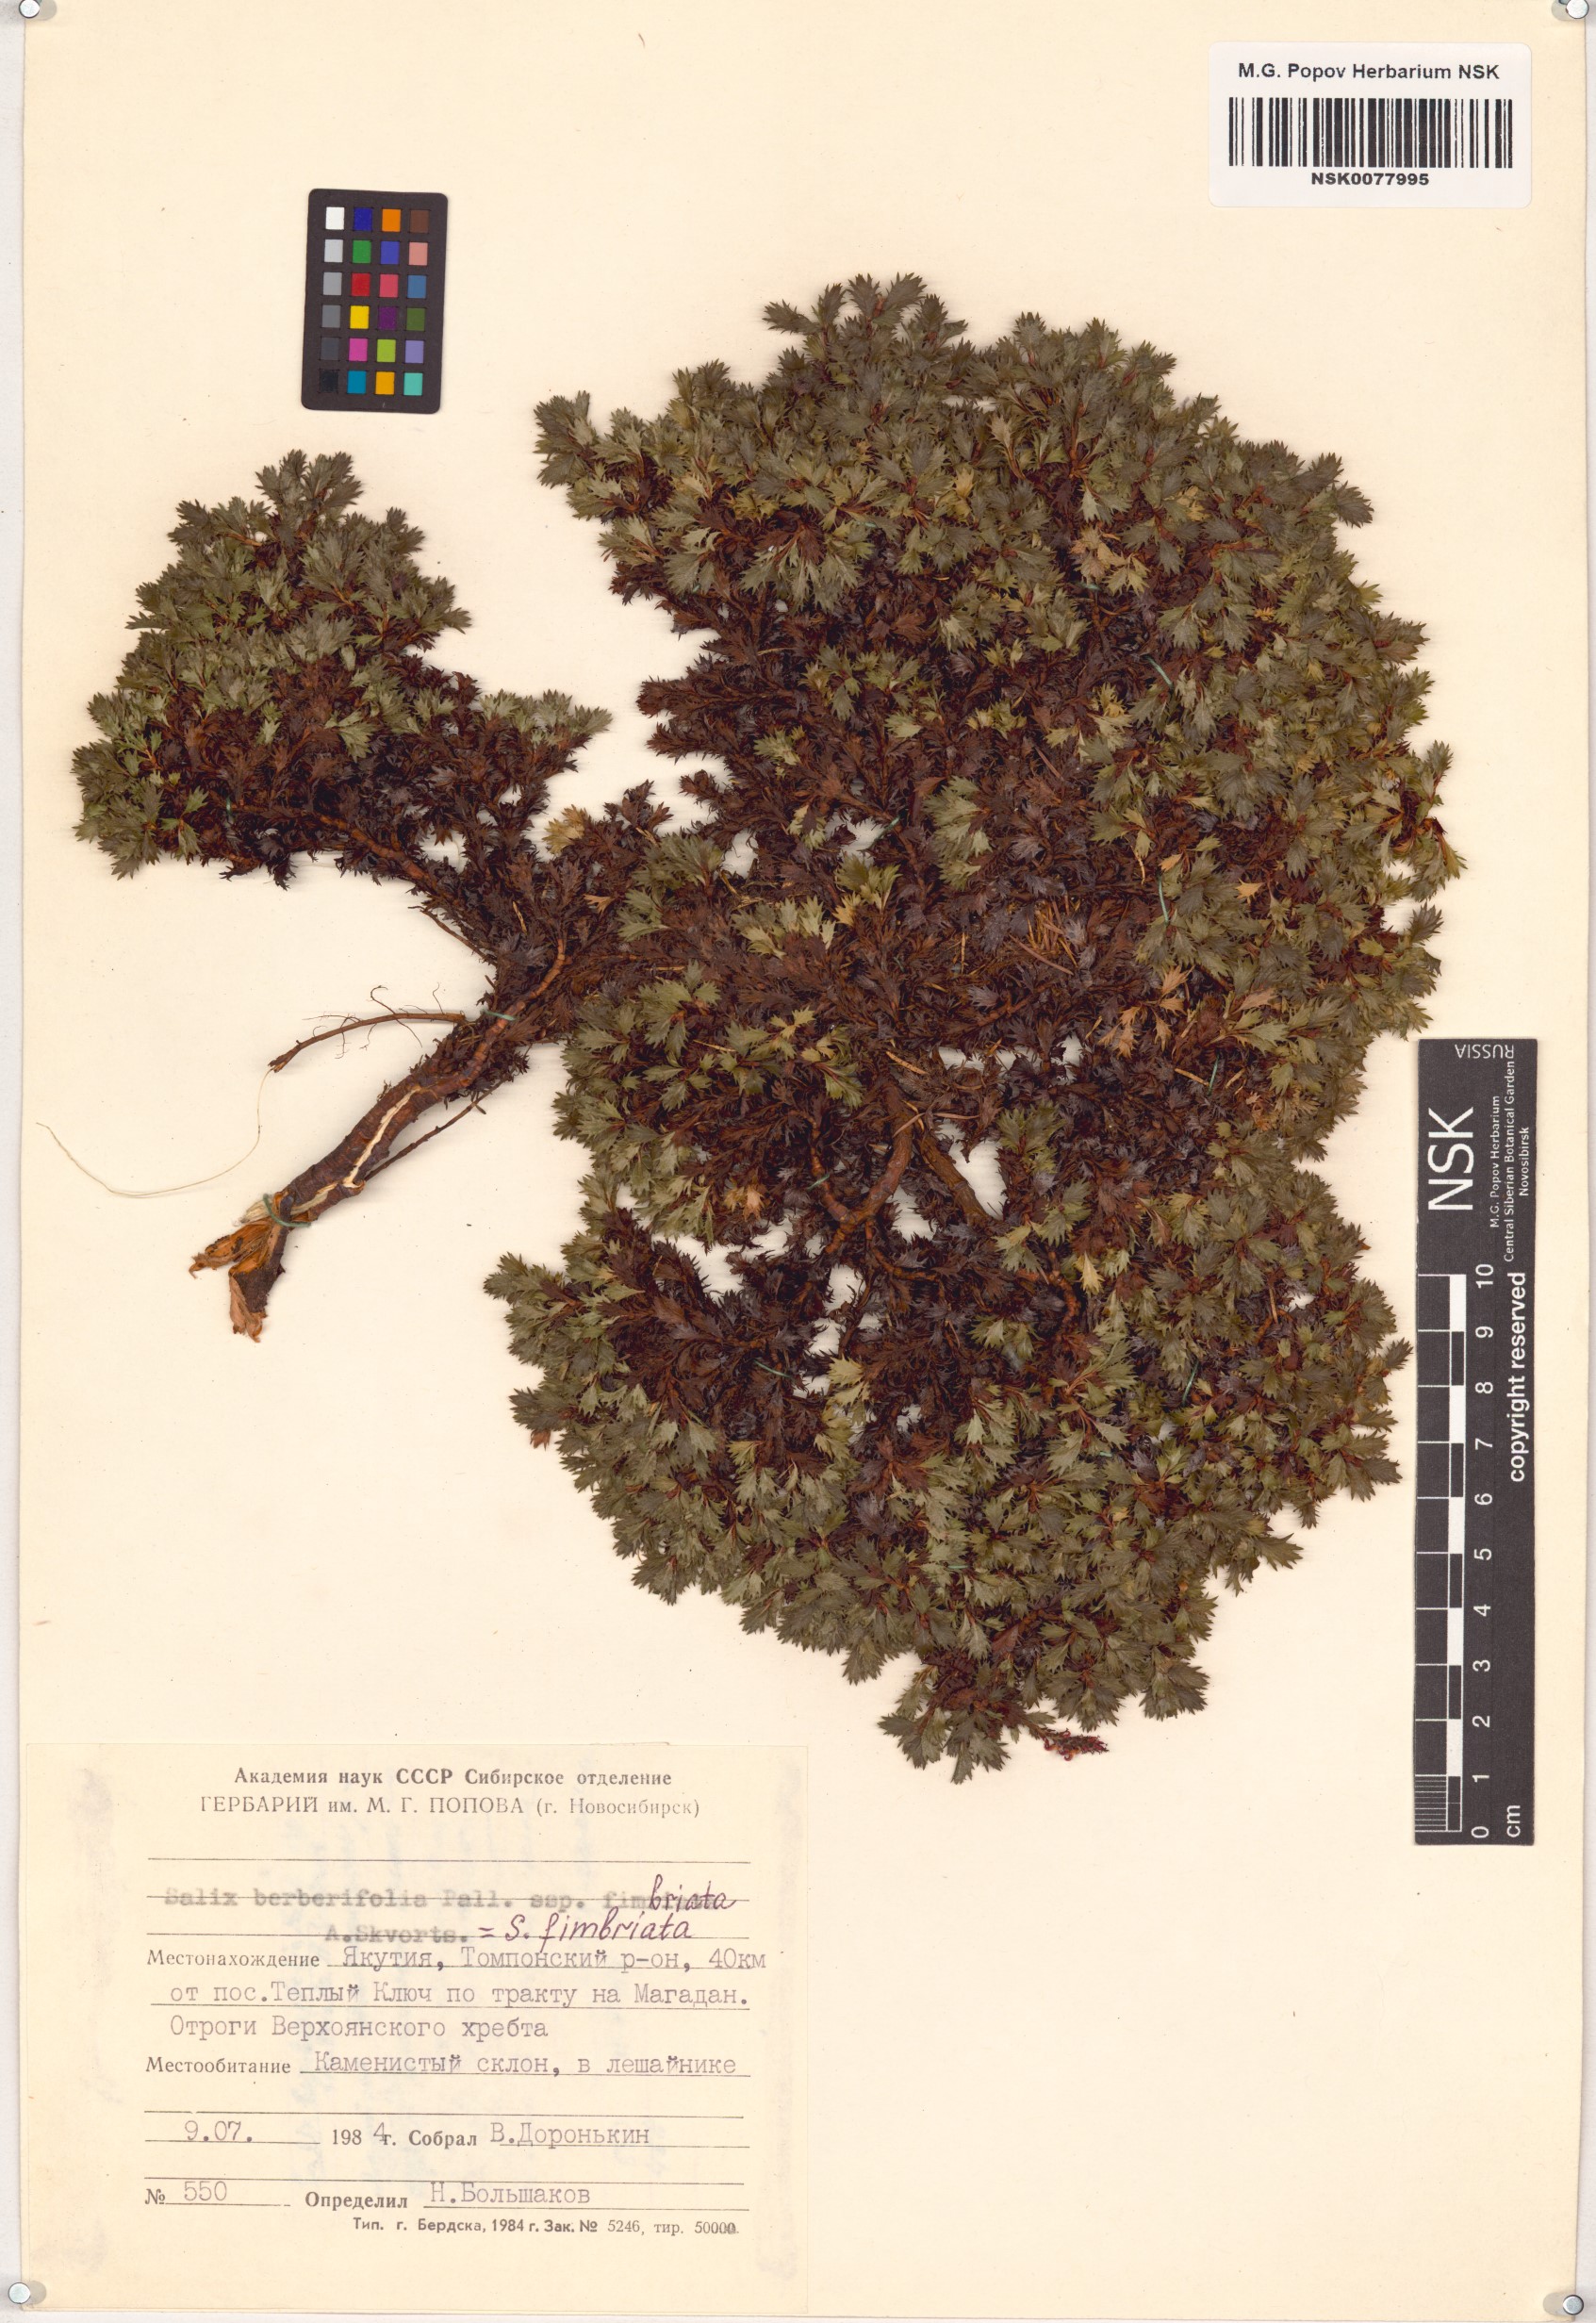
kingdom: Plantae
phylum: Tracheophyta
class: Magnoliopsida
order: Malpighiales
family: Salicaceae
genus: Salix
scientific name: Salix berberifolia
